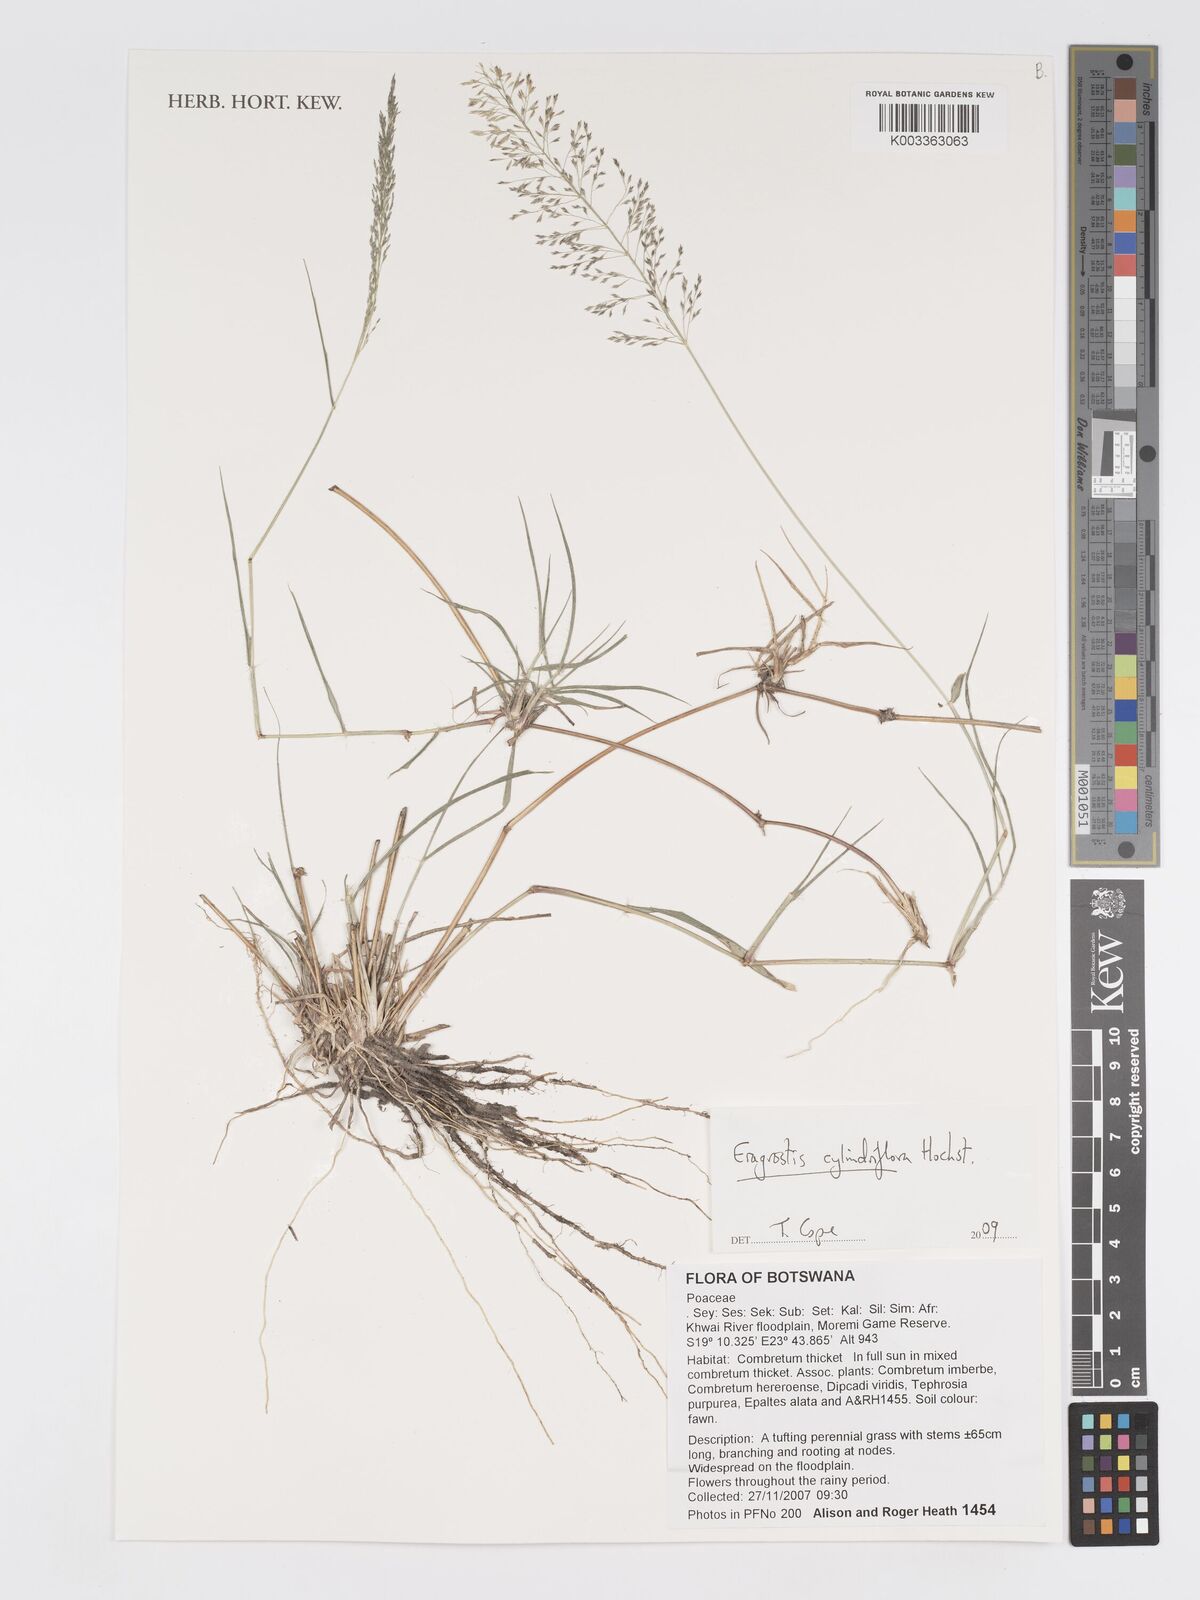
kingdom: Plantae
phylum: Tracheophyta
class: Liliopsida
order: Poales
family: Poaceae
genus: Eragrostis
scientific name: Eragrostis cylindriflora
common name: Cylinderflower lovegrass
